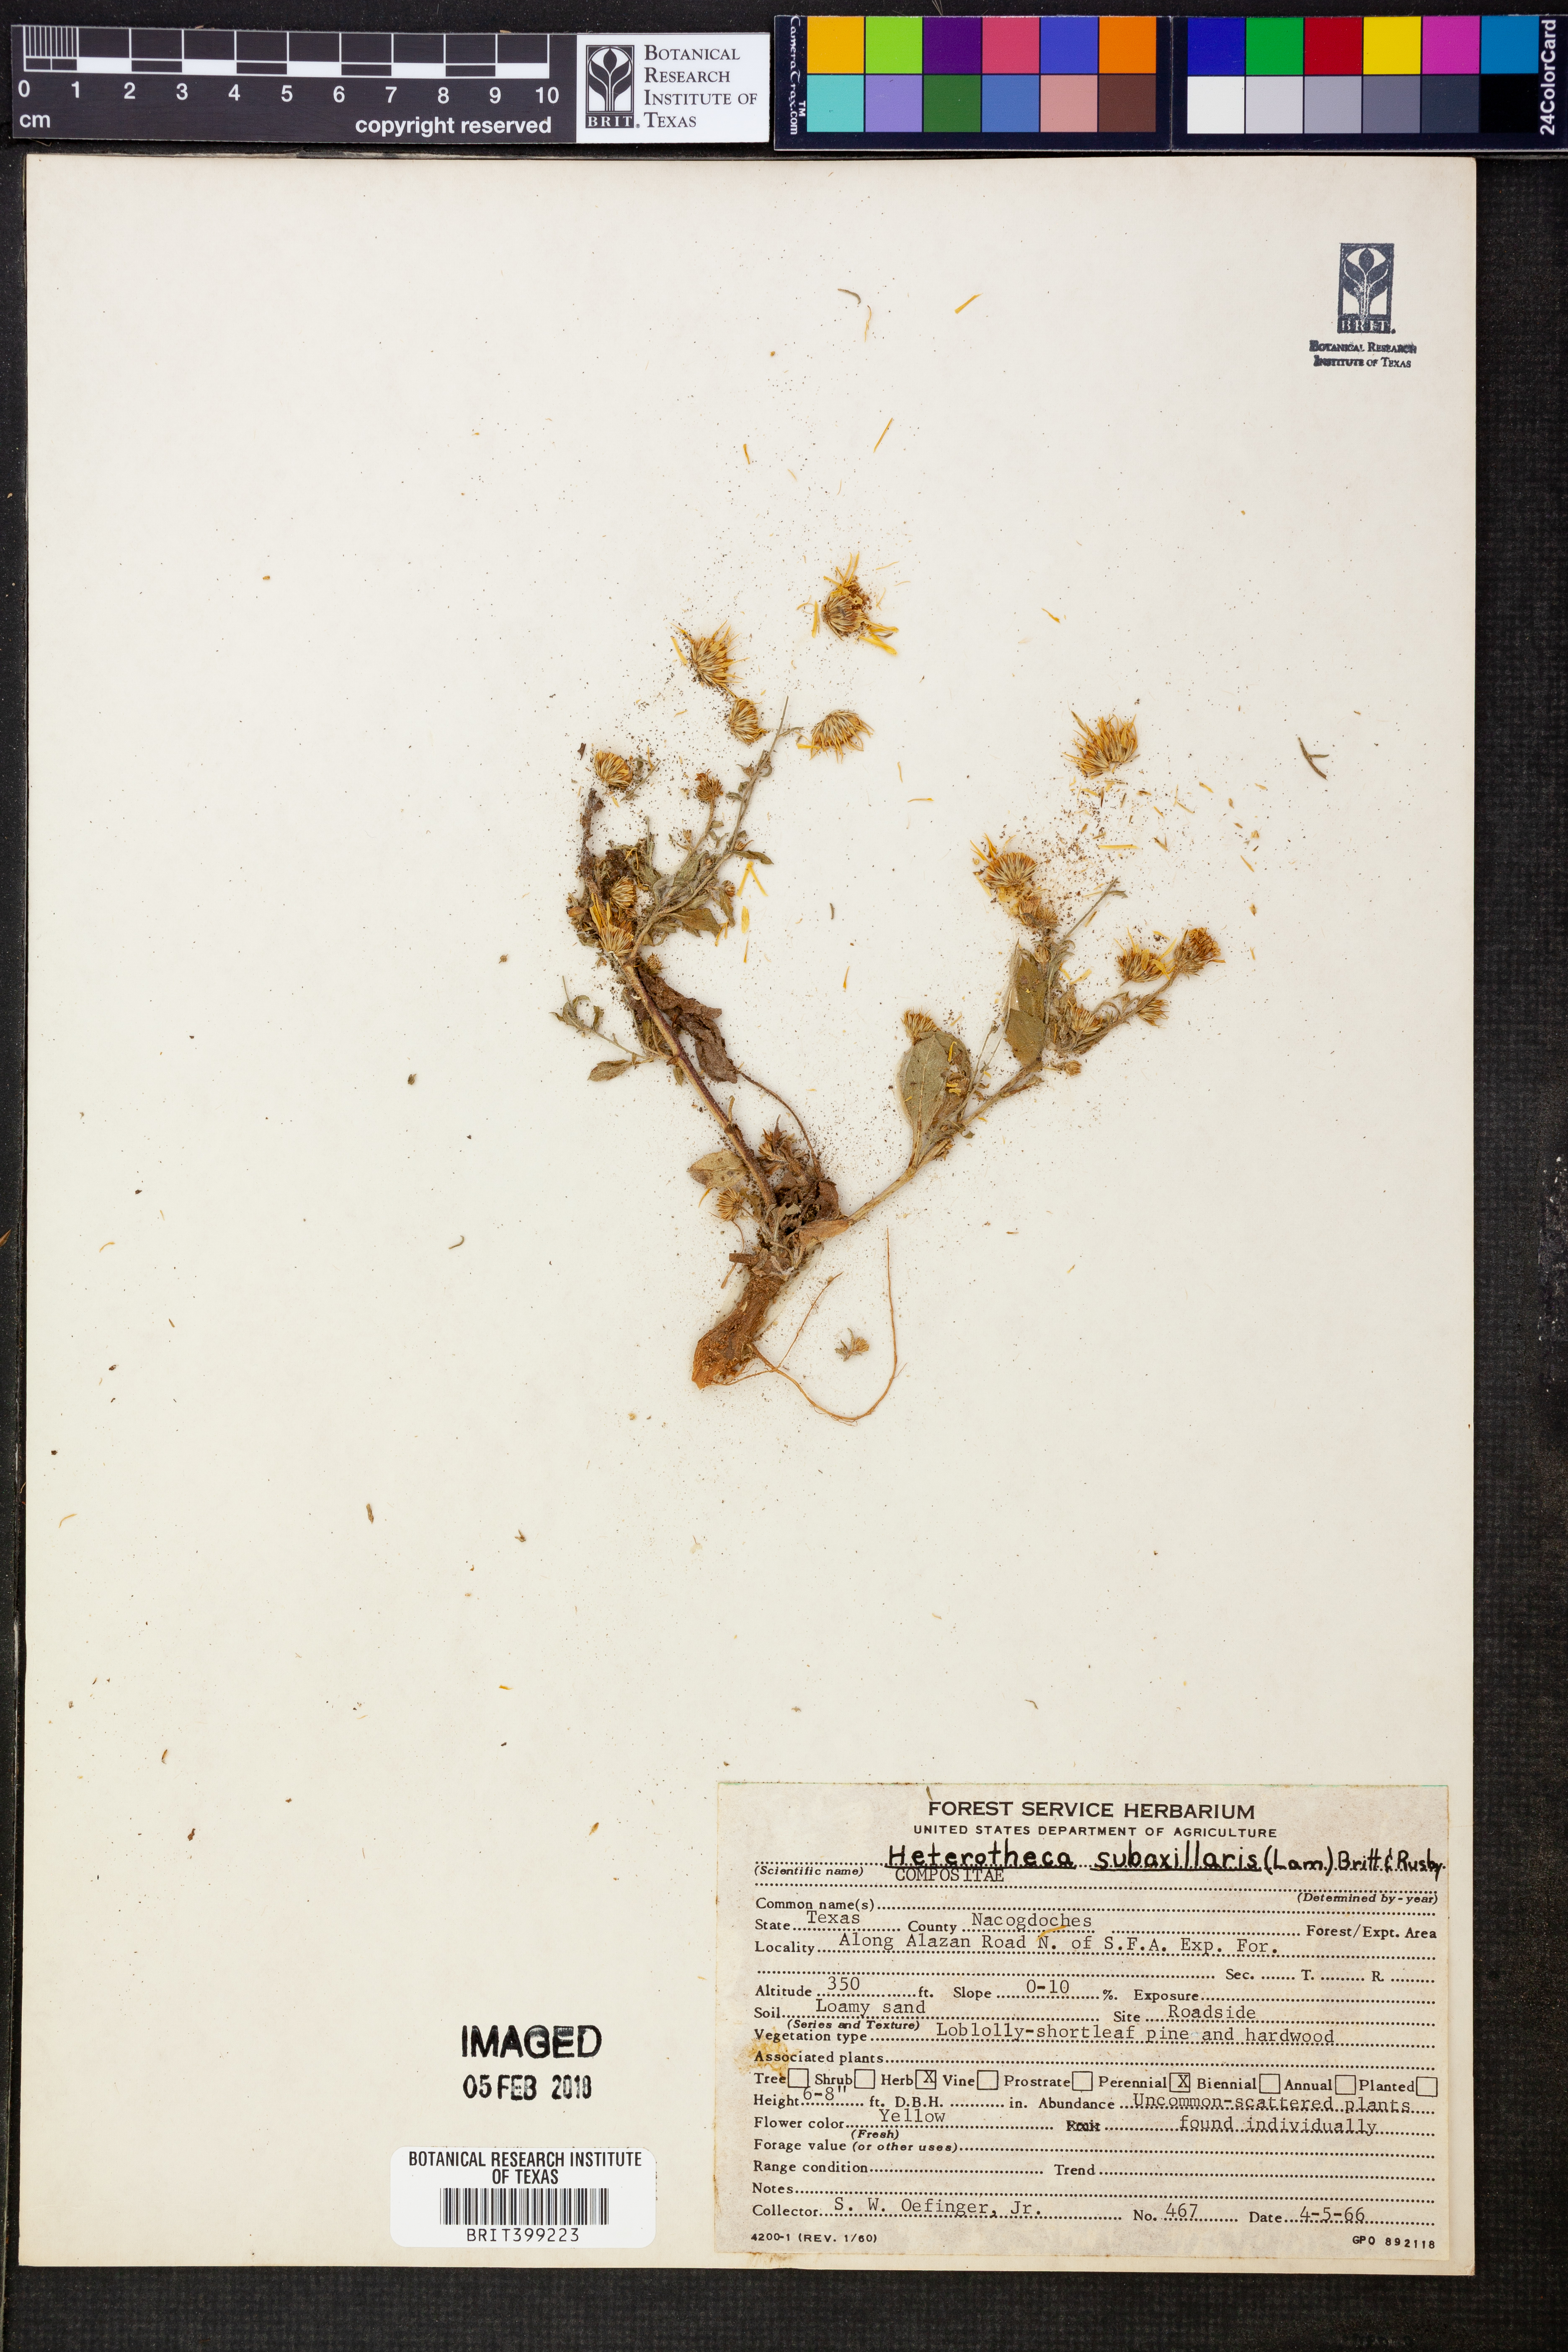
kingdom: Plantae
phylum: Tracheophyta
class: Magnoliopsida
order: Asterales
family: Asteraceae
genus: Heterotheca
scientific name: Heterotheca subaxillaris
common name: Camphorweed
